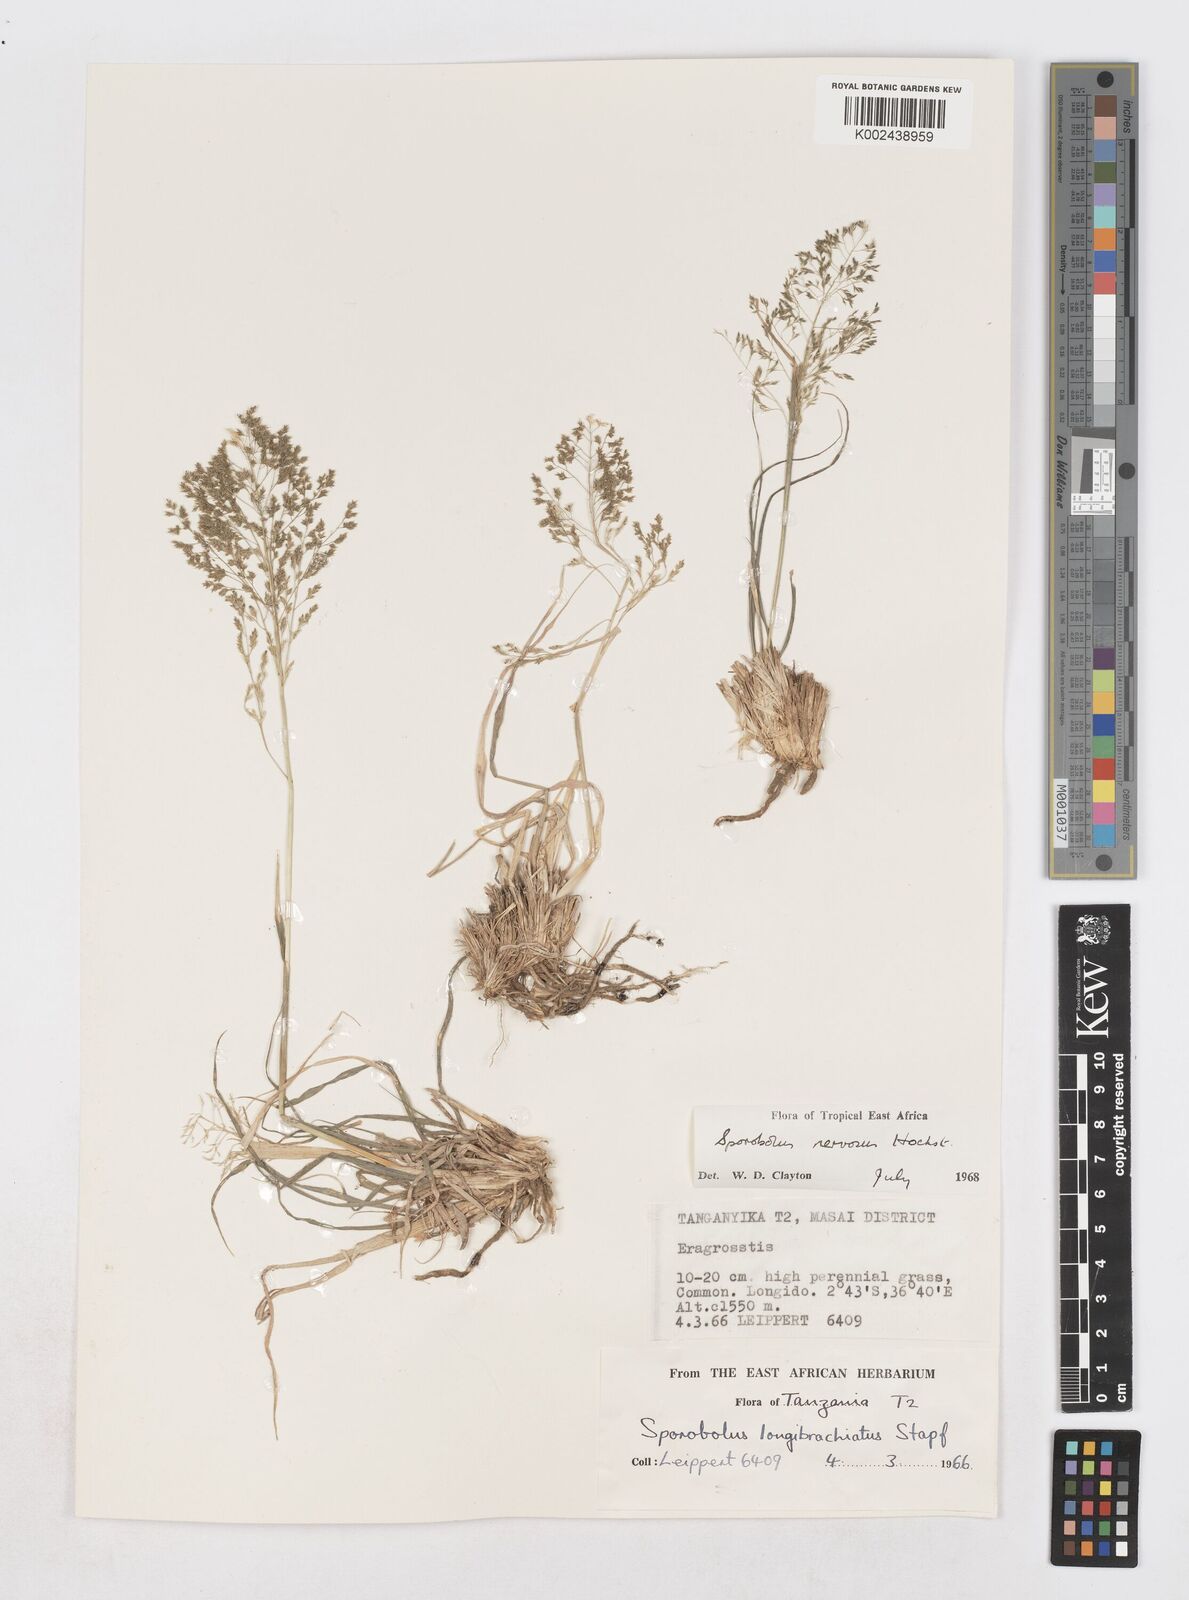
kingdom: Plantae
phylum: Tracheophyta
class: Liliopsida
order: Poales
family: Poaceae
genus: Sporobolus
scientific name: Sporobolus nervosus
